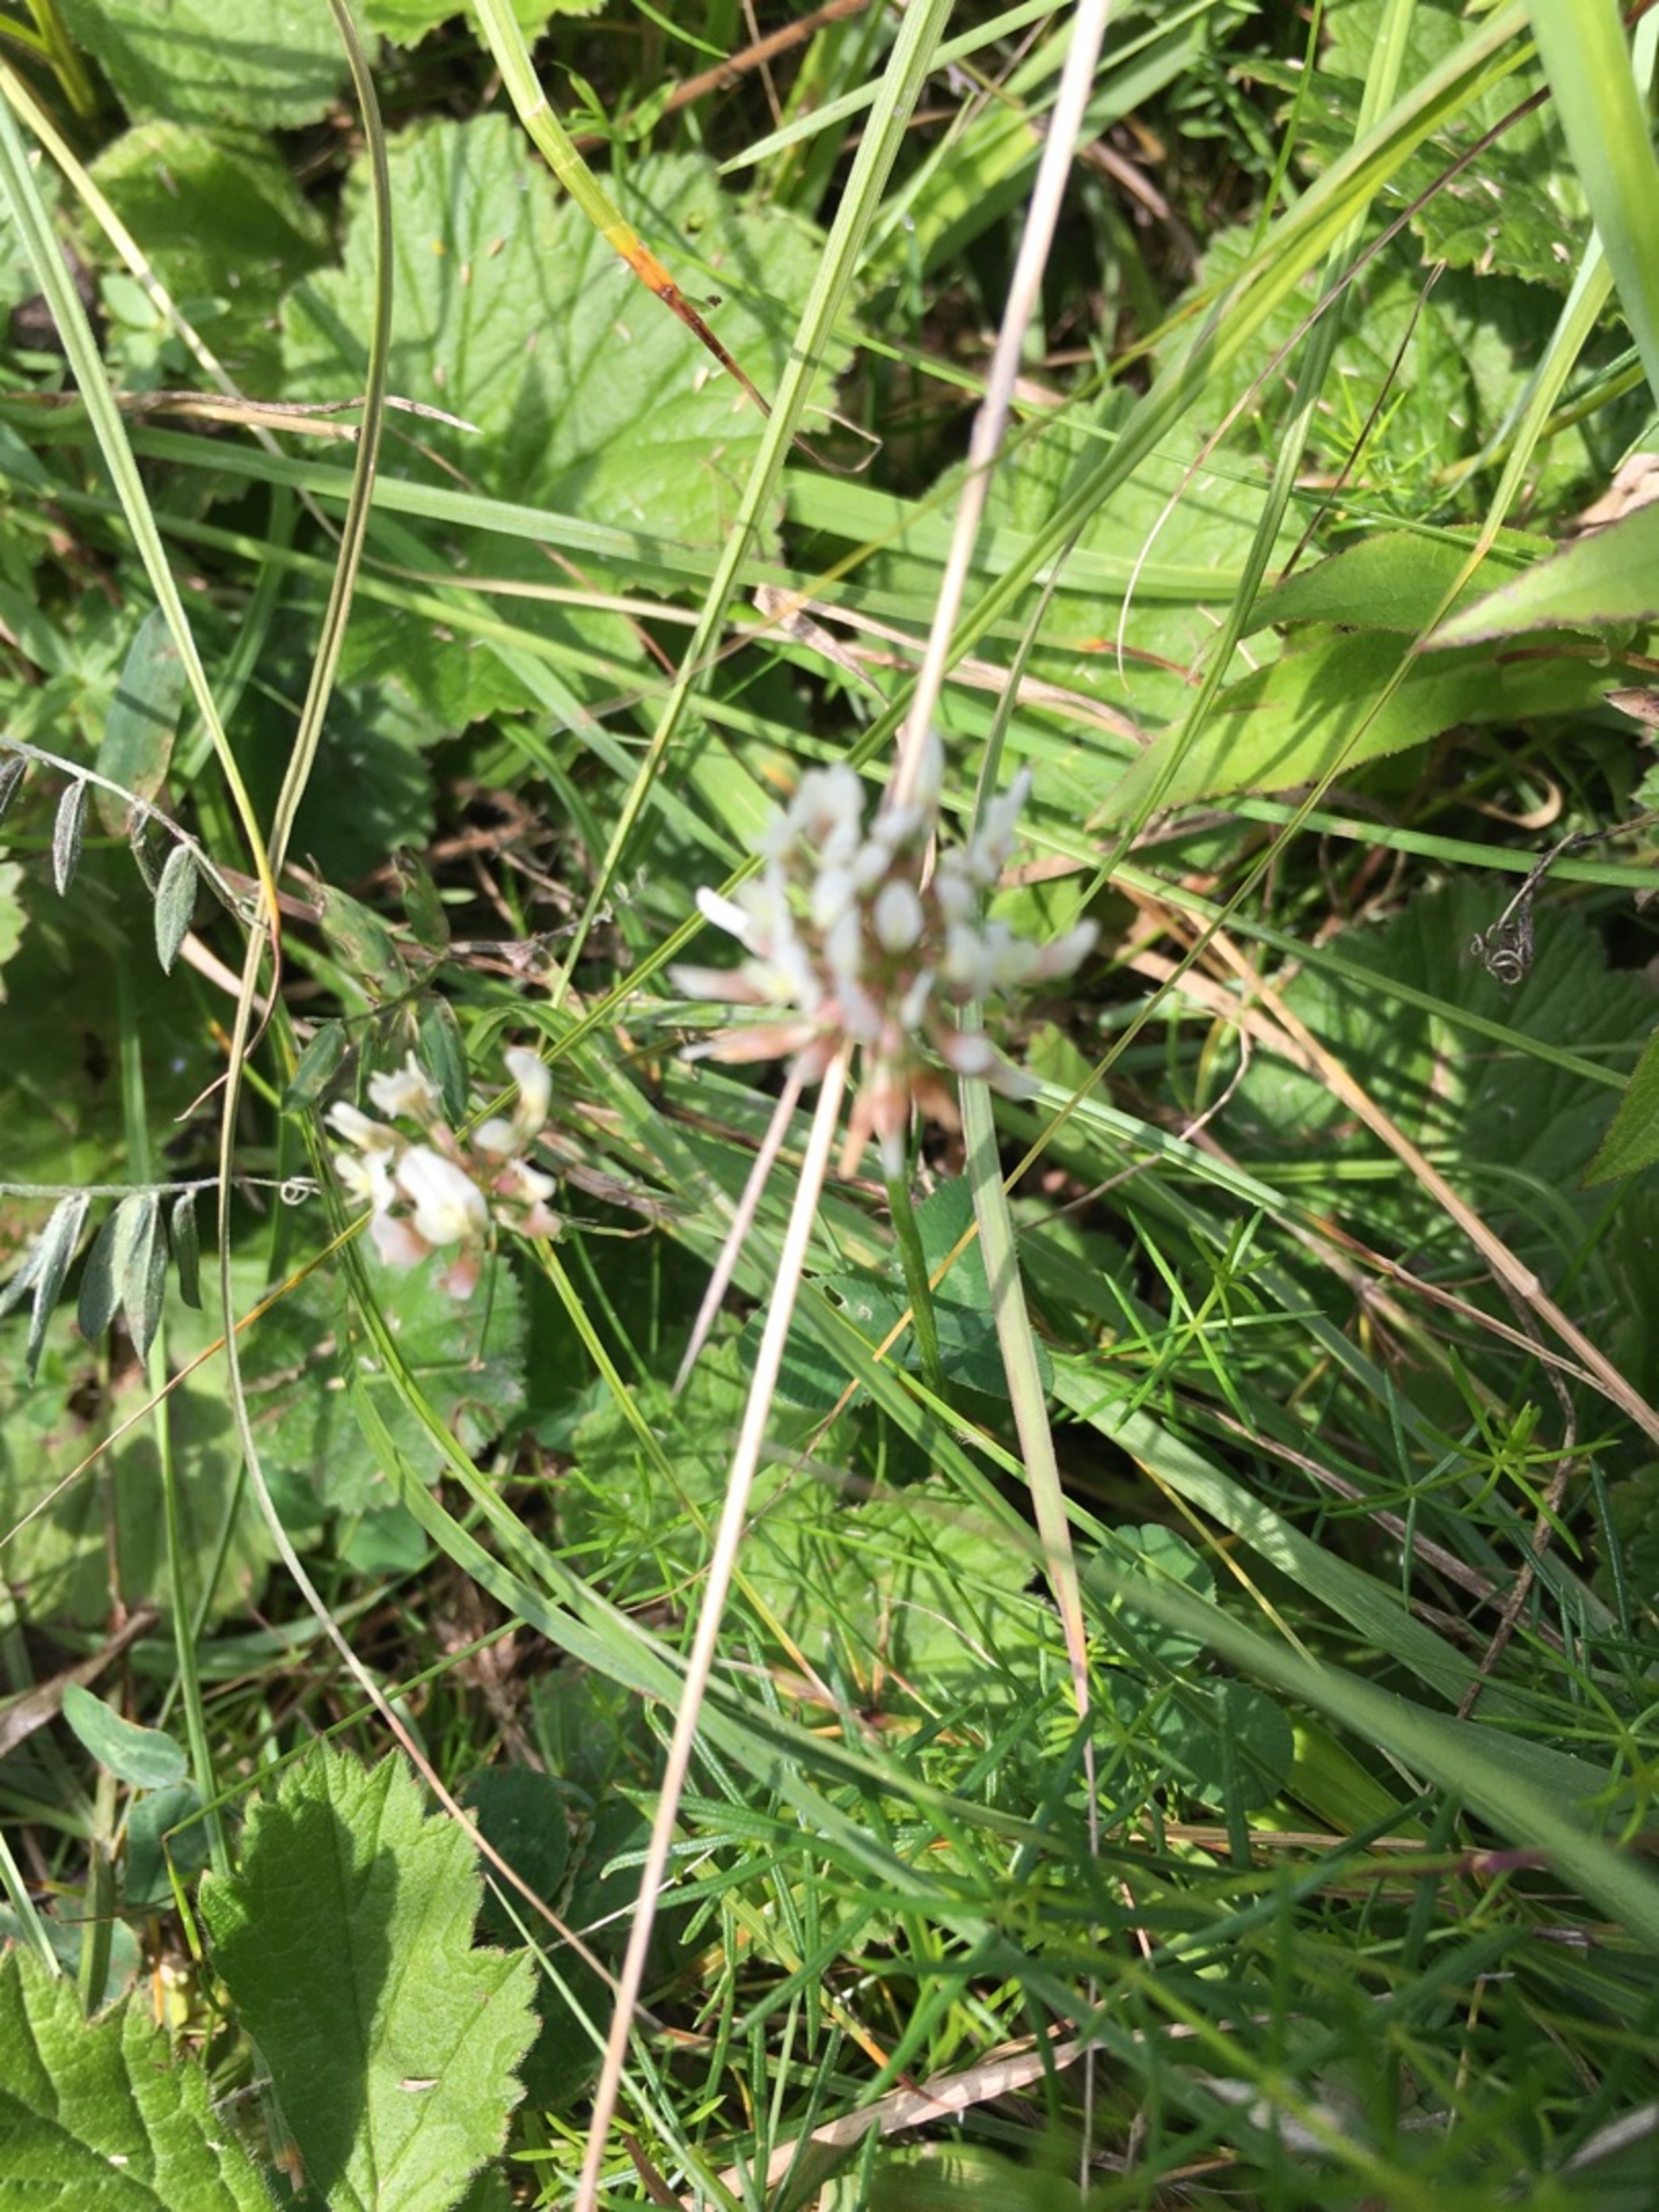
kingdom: Plantae
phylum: Tracheophyta
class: Magnoliopsida
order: Fabales
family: Fabaceae
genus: Trifolium
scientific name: Trifolium repens
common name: Hvid-kløver
